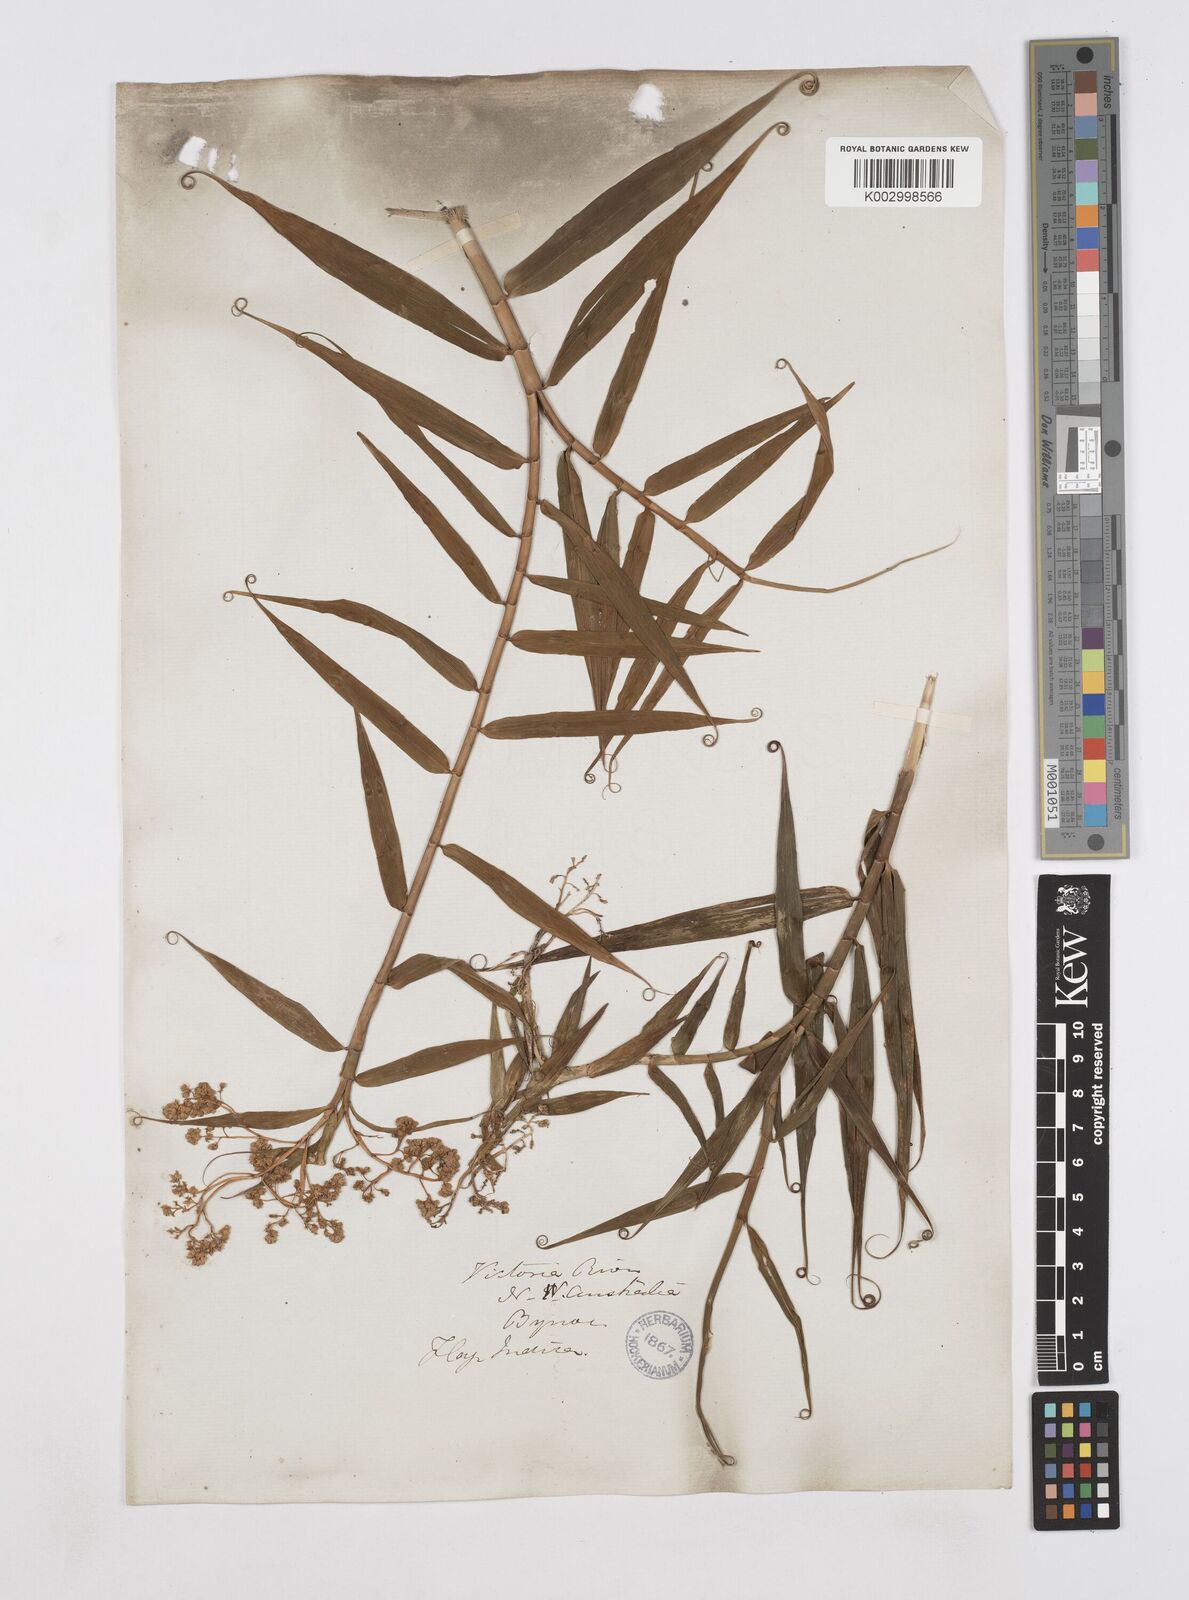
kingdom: Plantae
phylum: Tracheophyta
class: Liliopsida
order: Poales
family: Flagellariaceae
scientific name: Flagellariaceae
